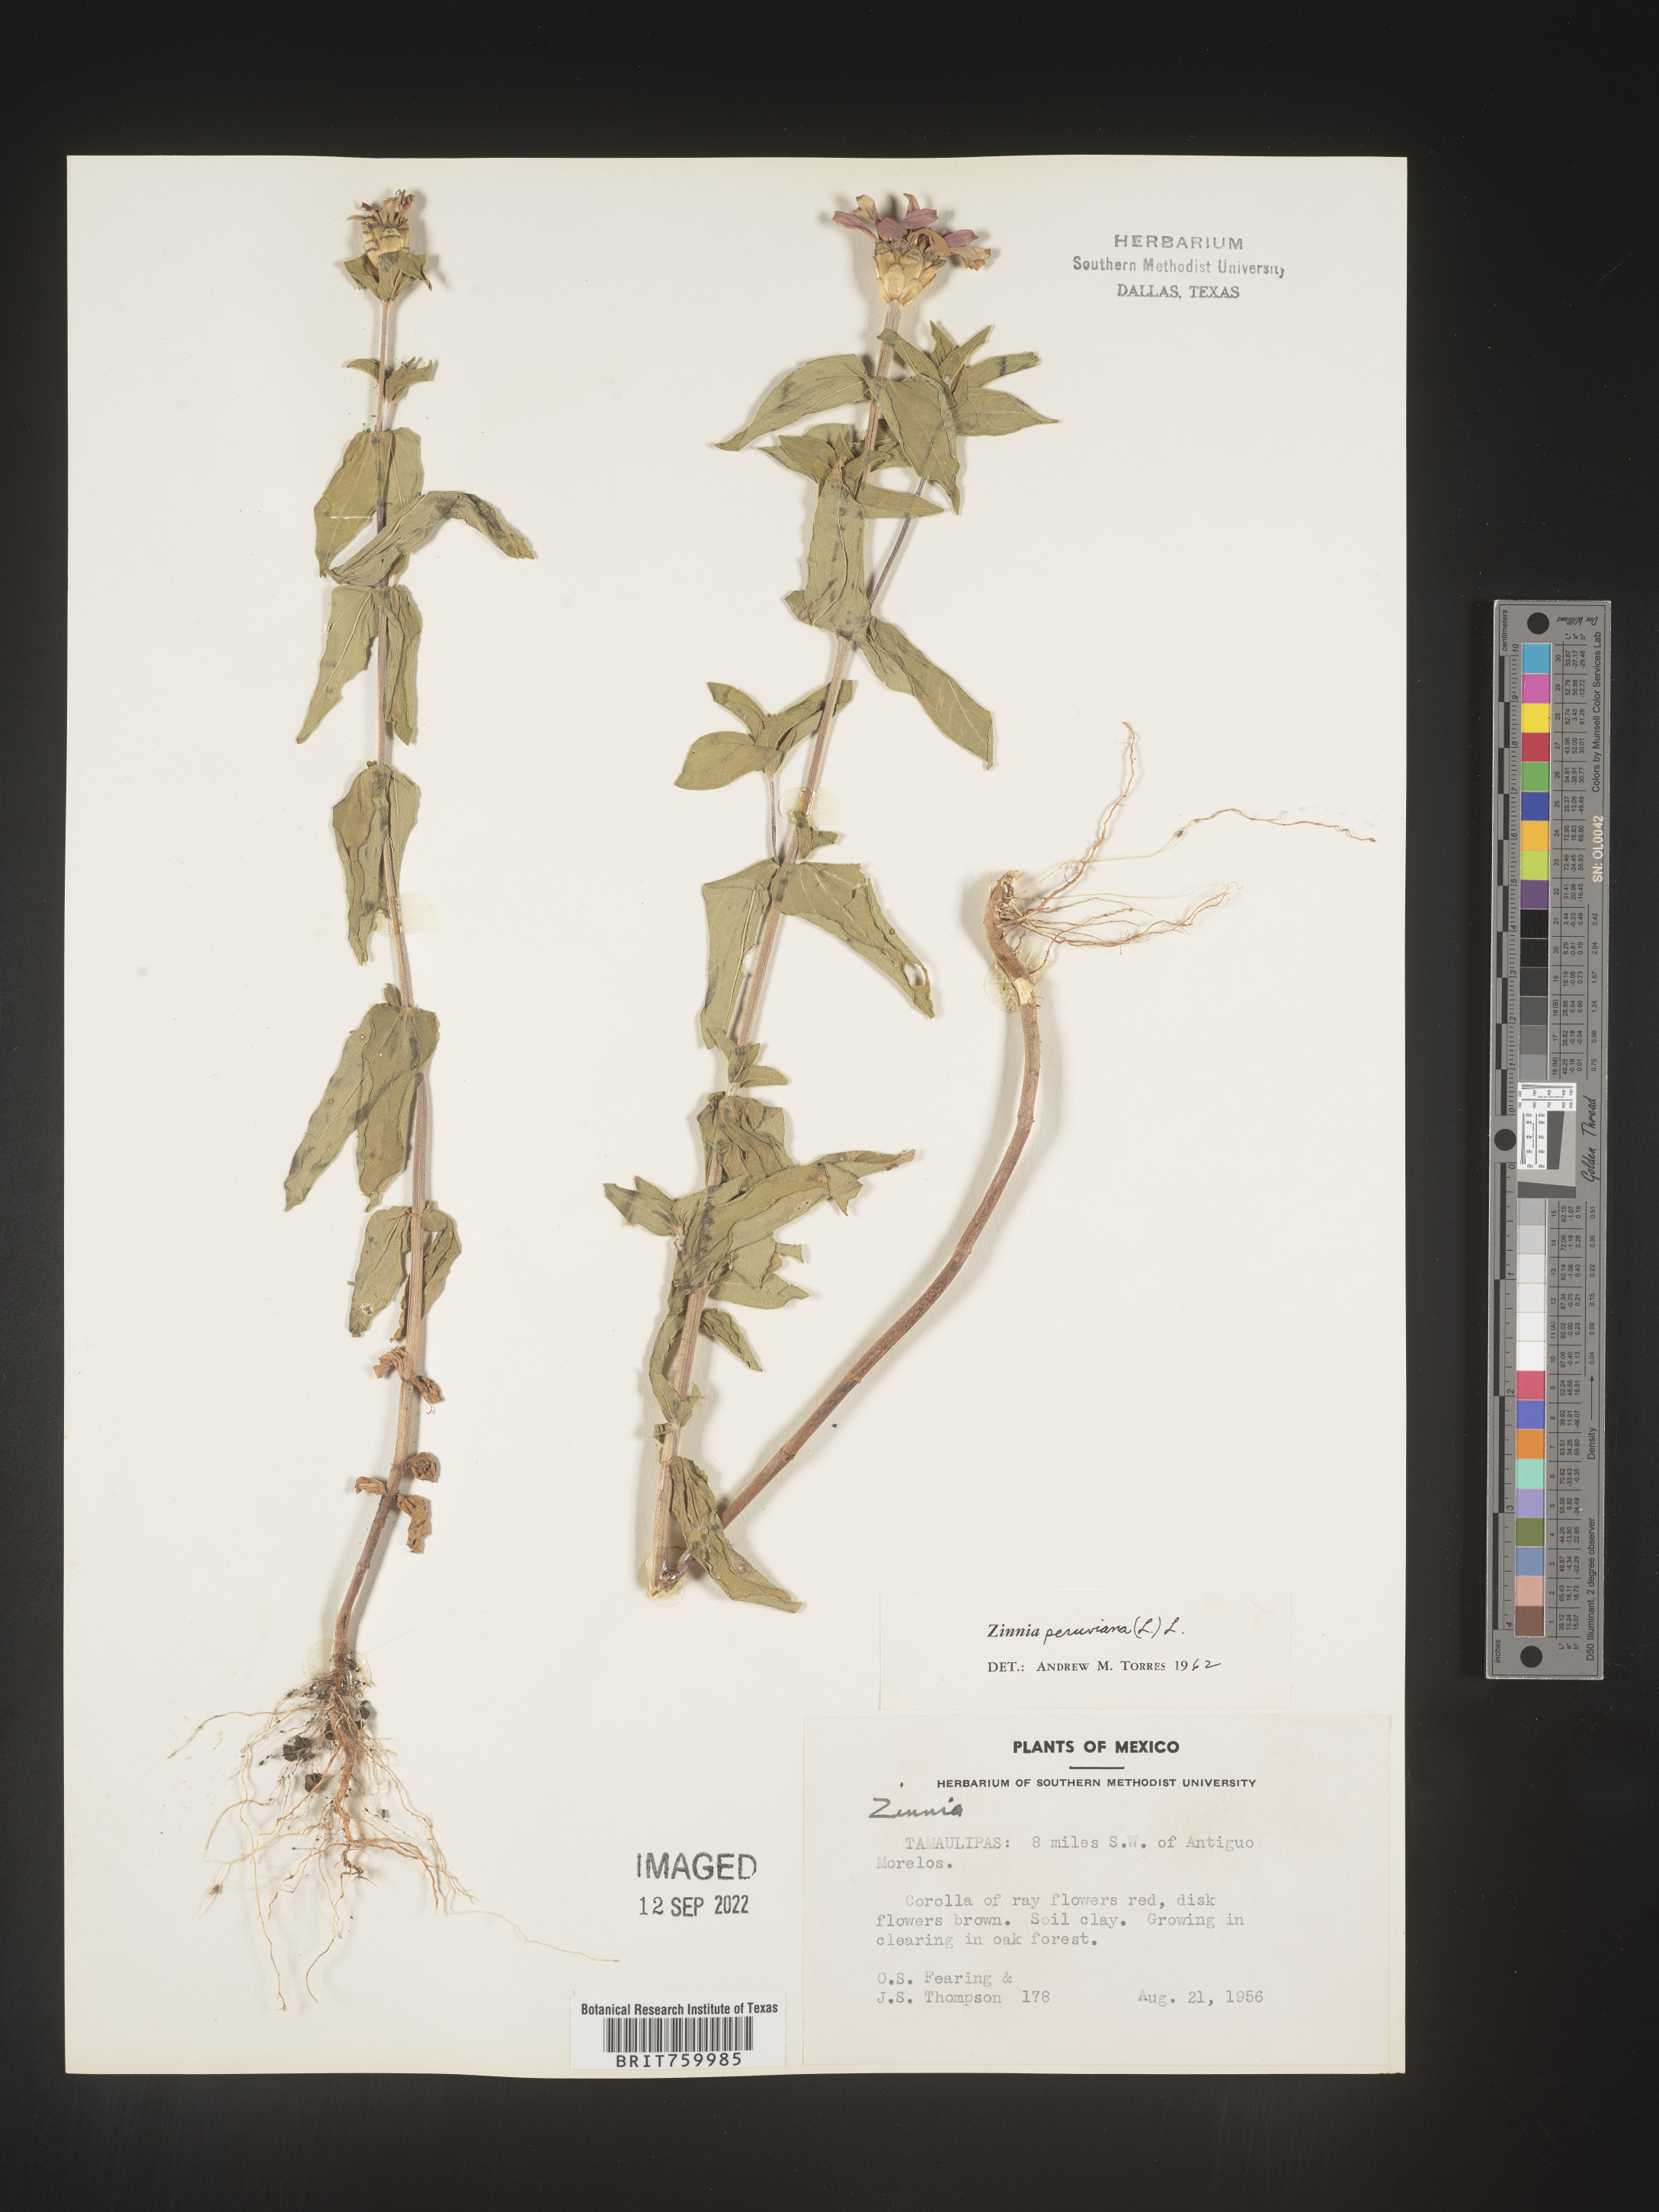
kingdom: Plantae
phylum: Tracheophyta
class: Magnoliopsida
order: Asterales
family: Asteraceae
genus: Zinnia
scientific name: Zinnia
